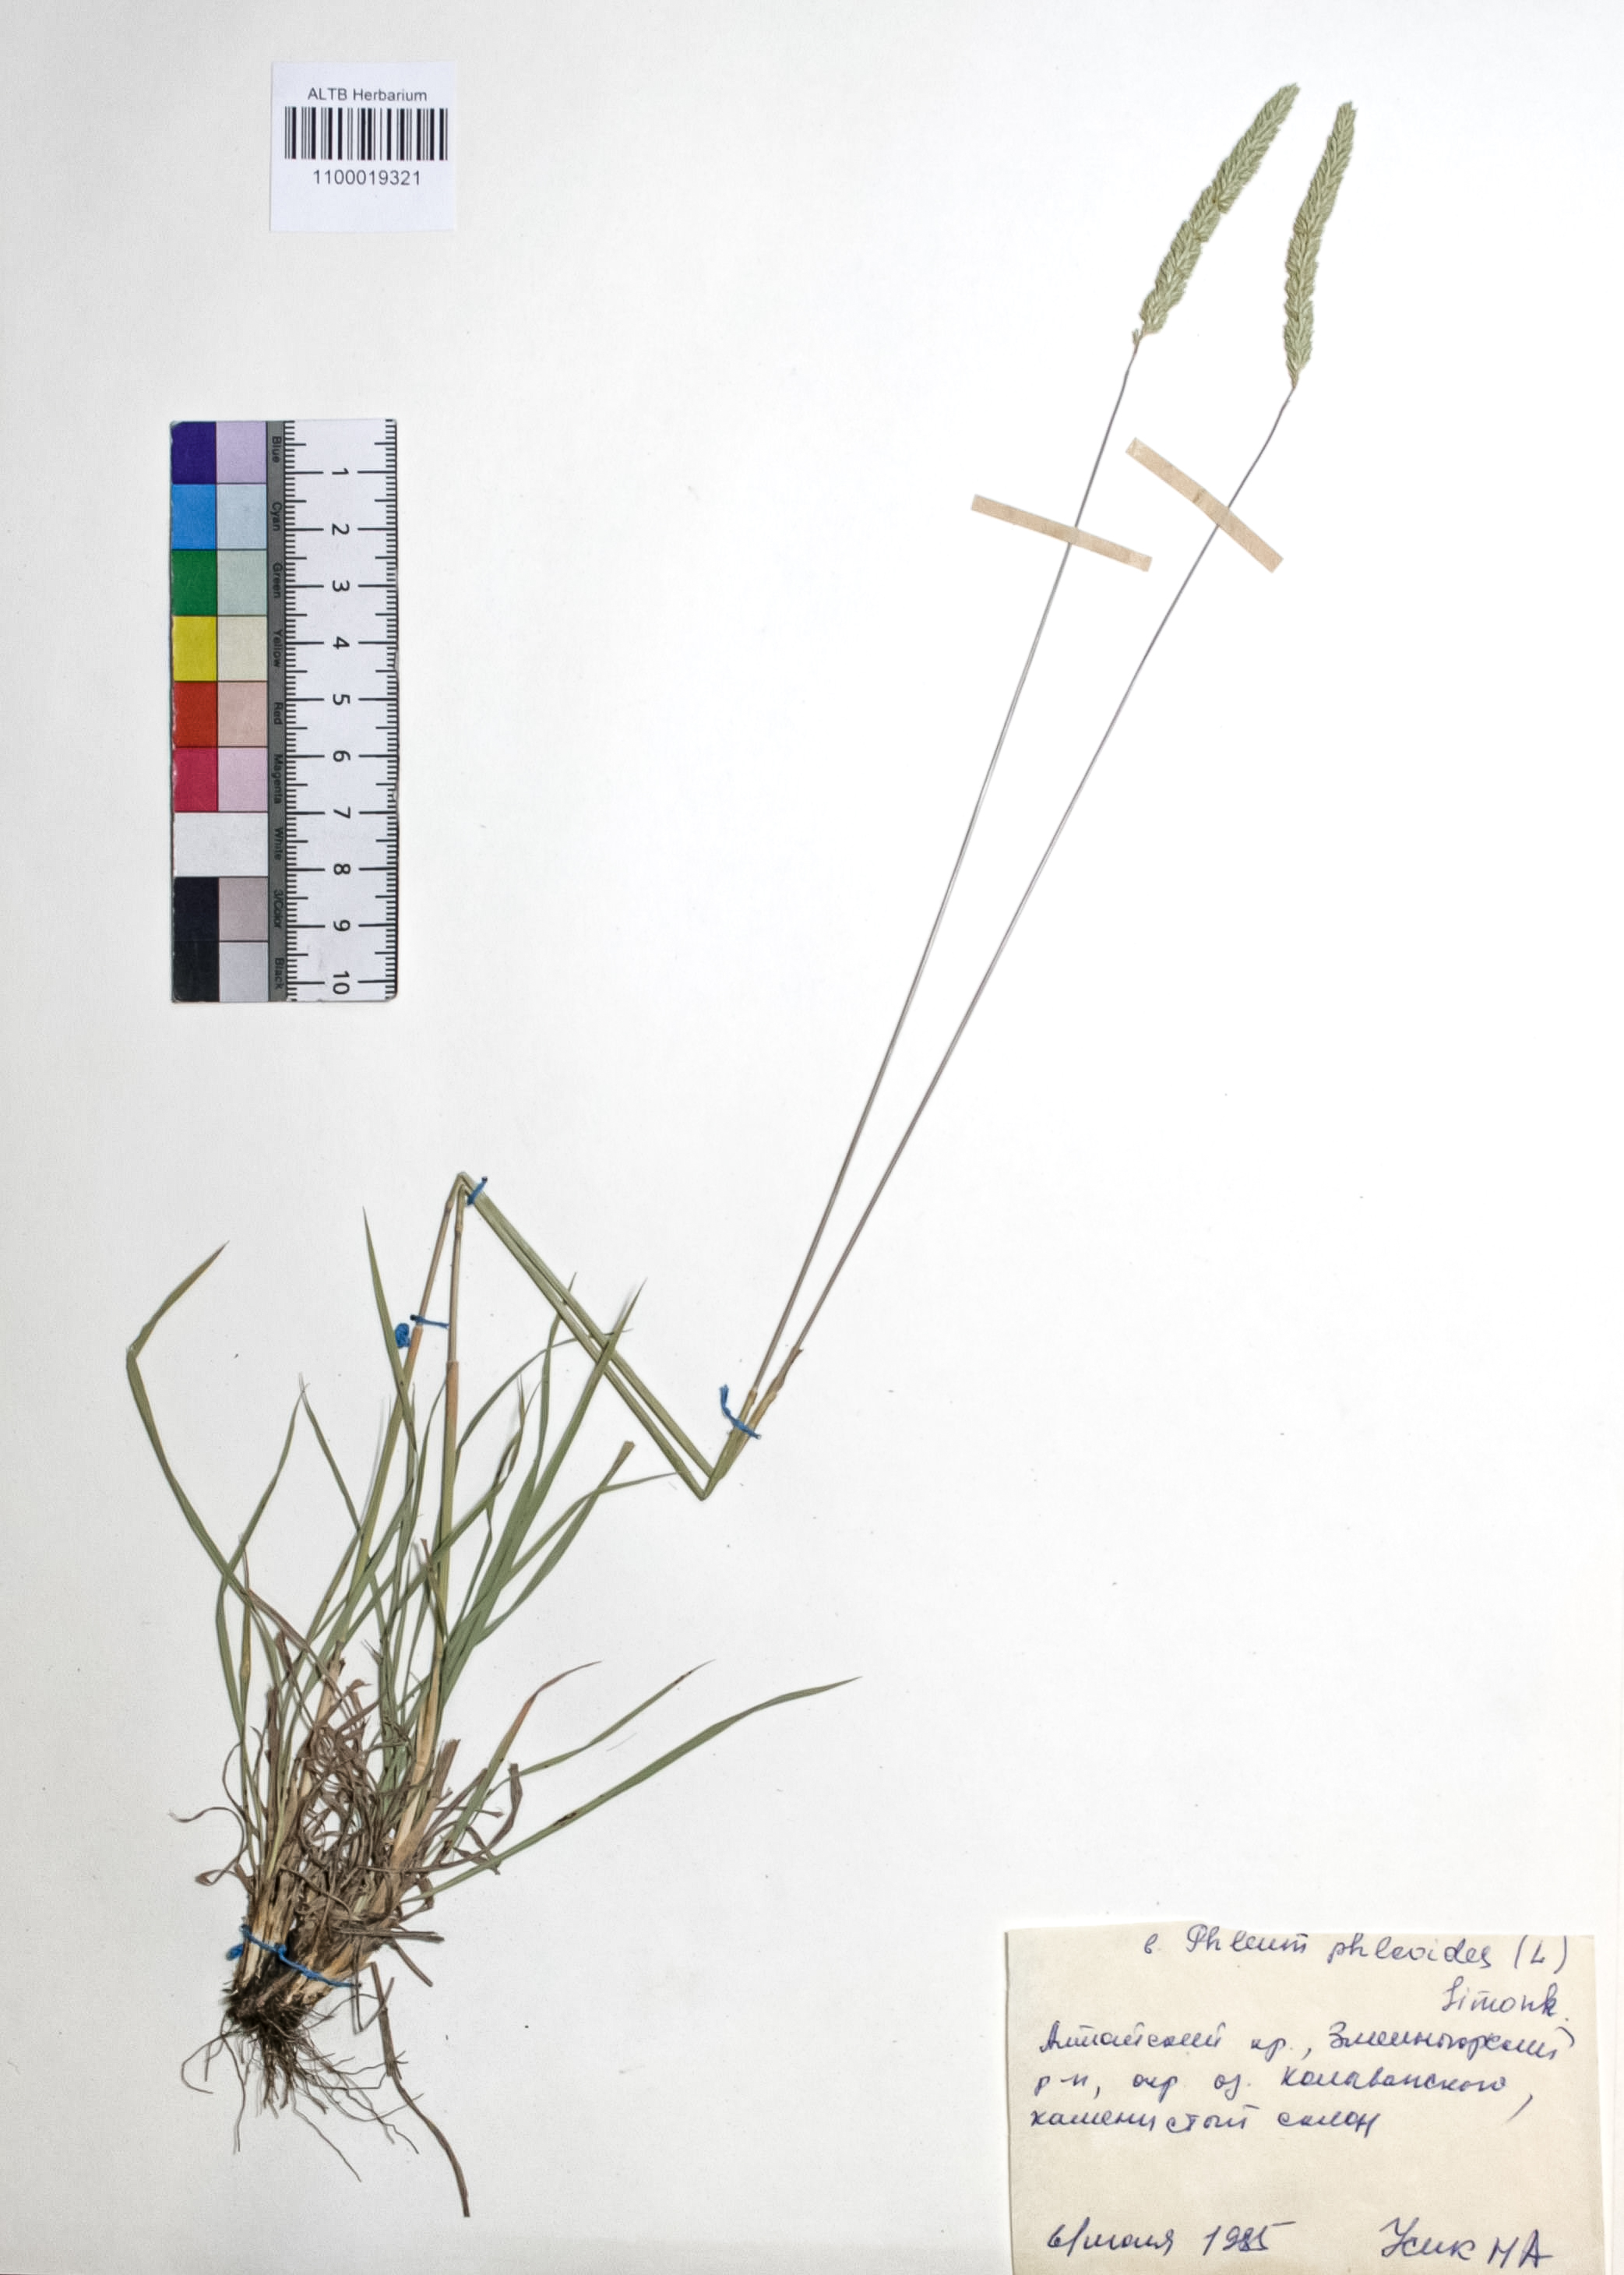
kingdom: Plantae
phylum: Tracheophyta
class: Liliopsida
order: Poales
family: Poaceae
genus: Phleum
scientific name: Phleum phleoides
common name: Purple-stem cat's-tail
